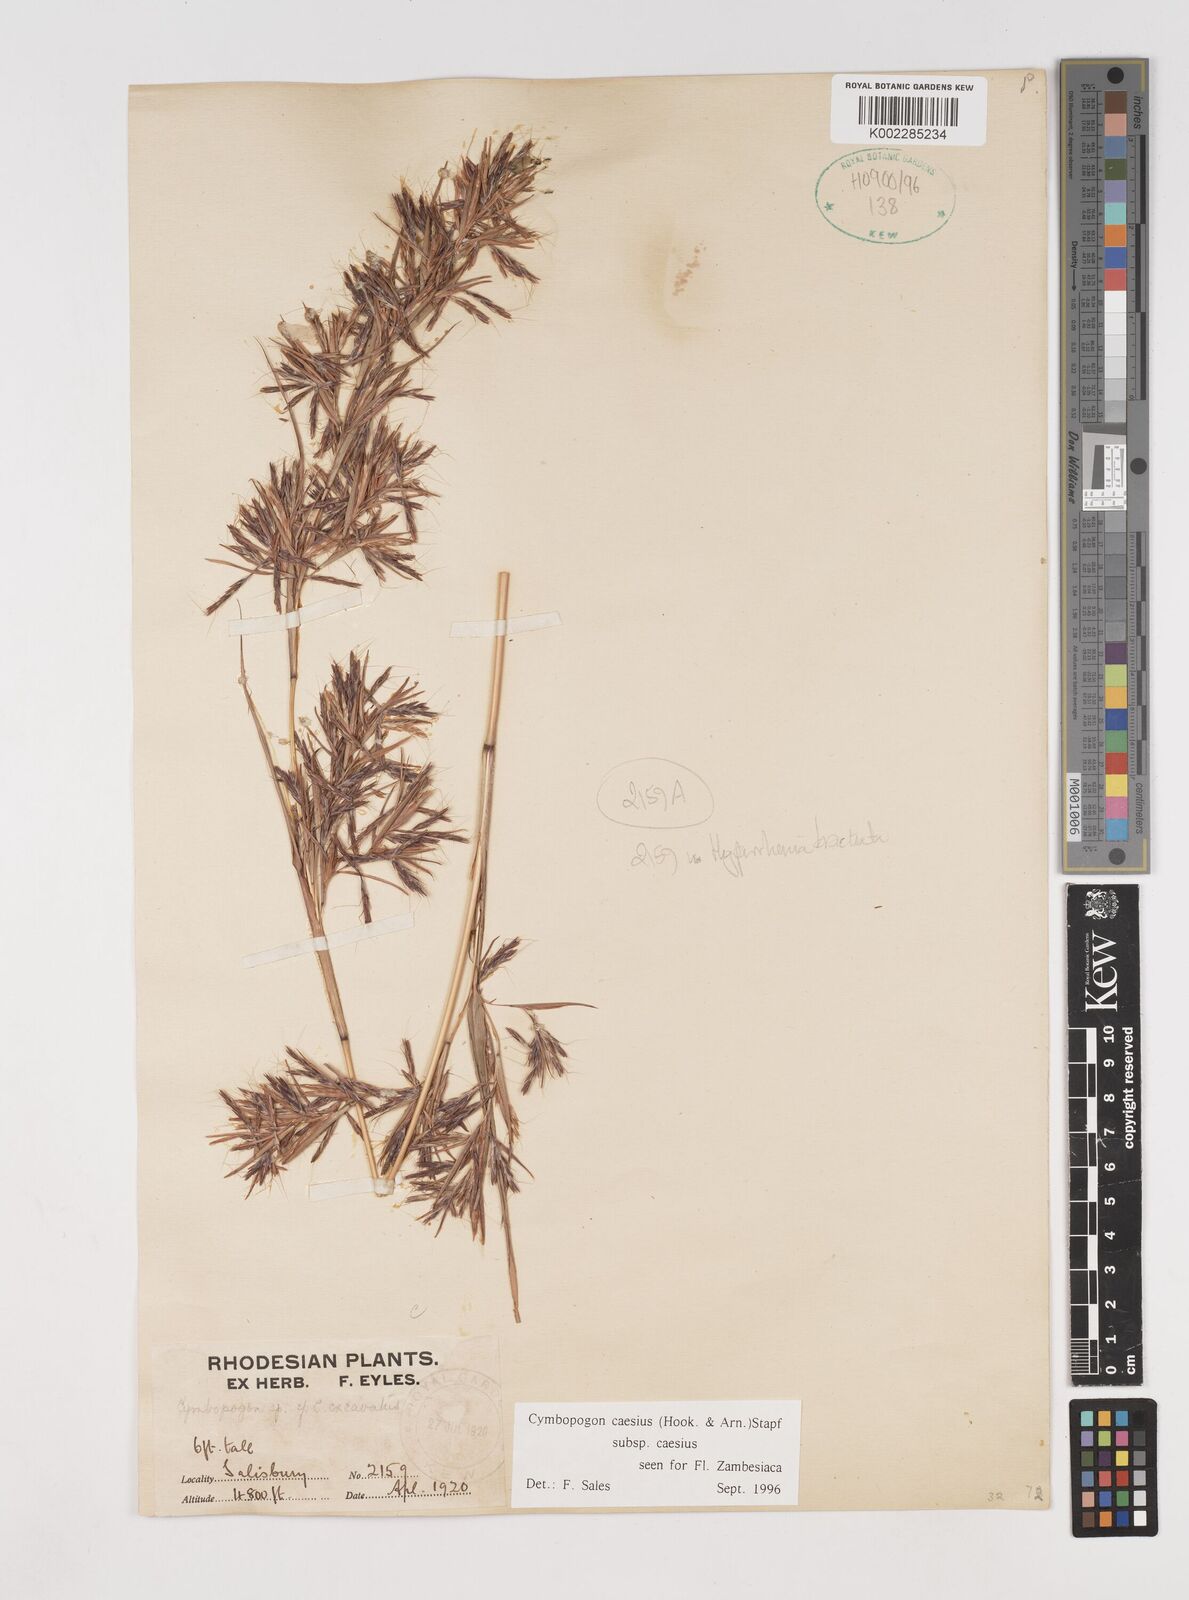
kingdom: Plantae
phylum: Tracheophyta
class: Liliopsida
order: Poales
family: Poaceae
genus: Cymbopogon
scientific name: Cymbopogon caesius
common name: Kachi grass
